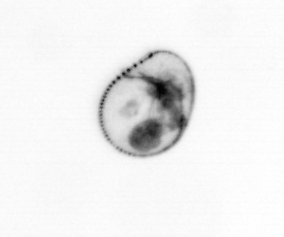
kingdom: Chromista
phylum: Myzozoa
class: Dinophyceae
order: Noctilucales
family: Noctilucaceae
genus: Noctiluca
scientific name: Noctiluca scintillans
